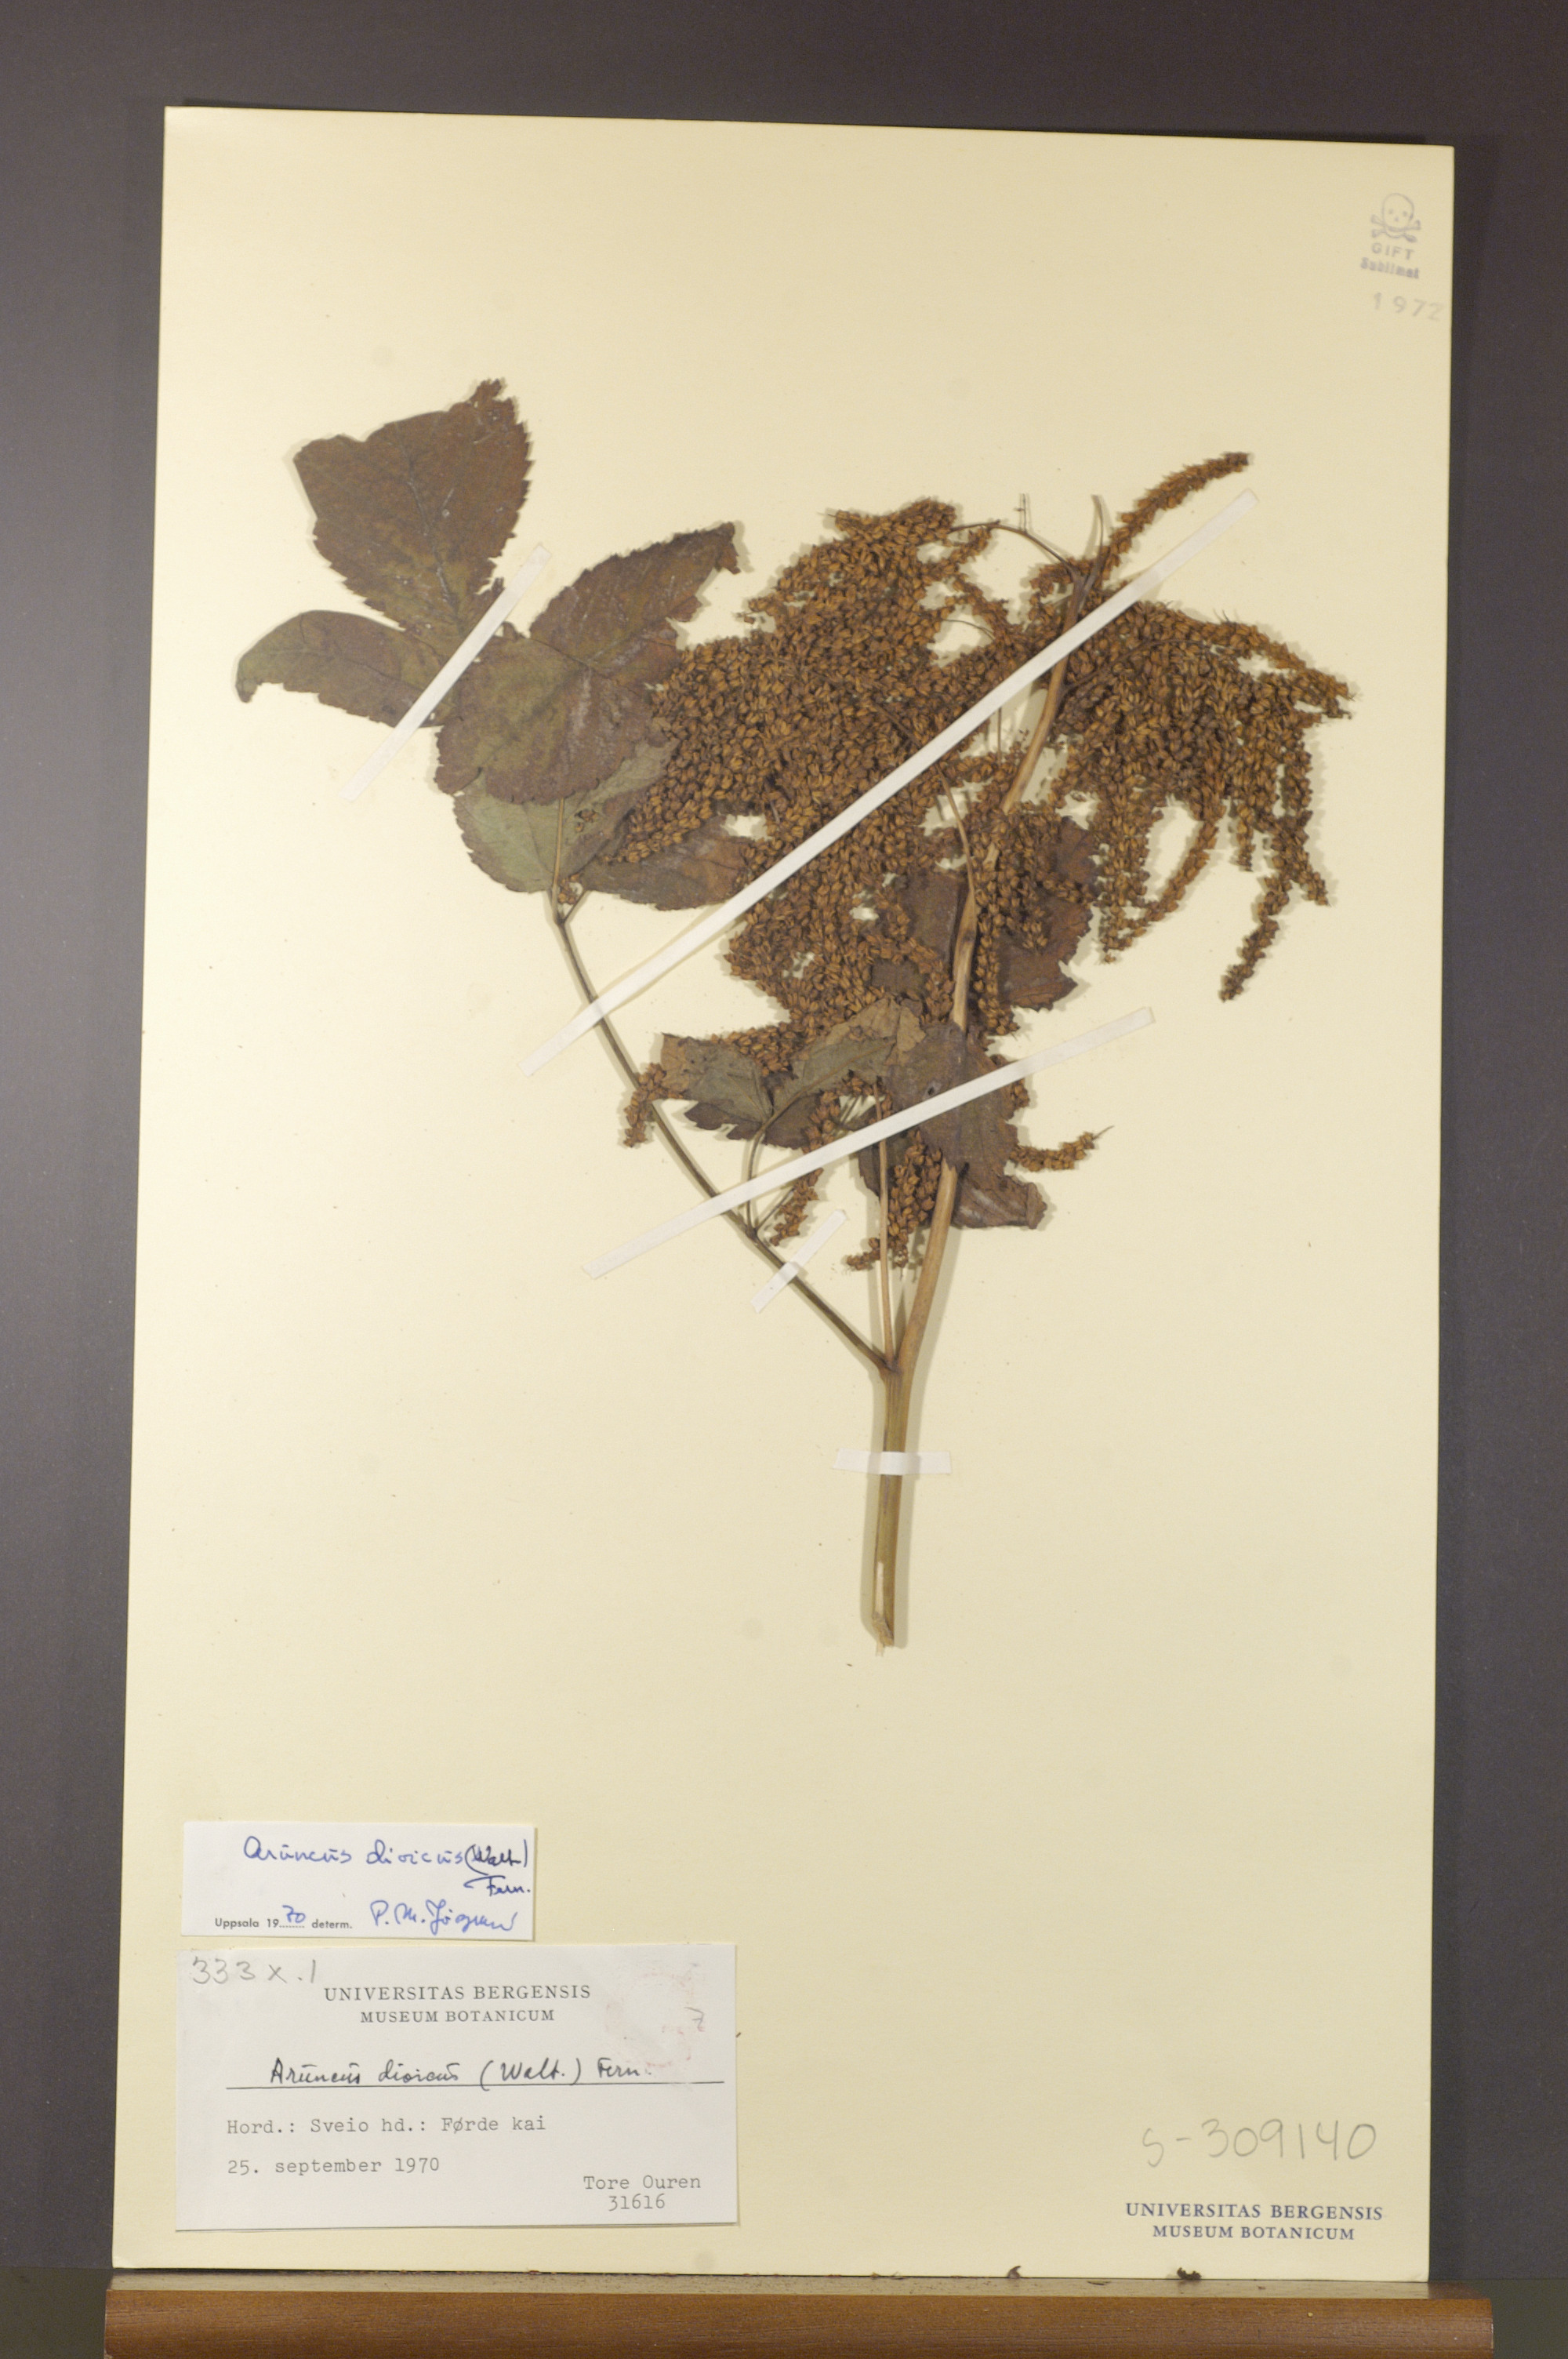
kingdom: Plantae
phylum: Tracheophyta
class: Magnoliopsida
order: Rosales
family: Rosaceae
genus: Aruncus
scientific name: Aruncus dioicus
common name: Buck's-beard
